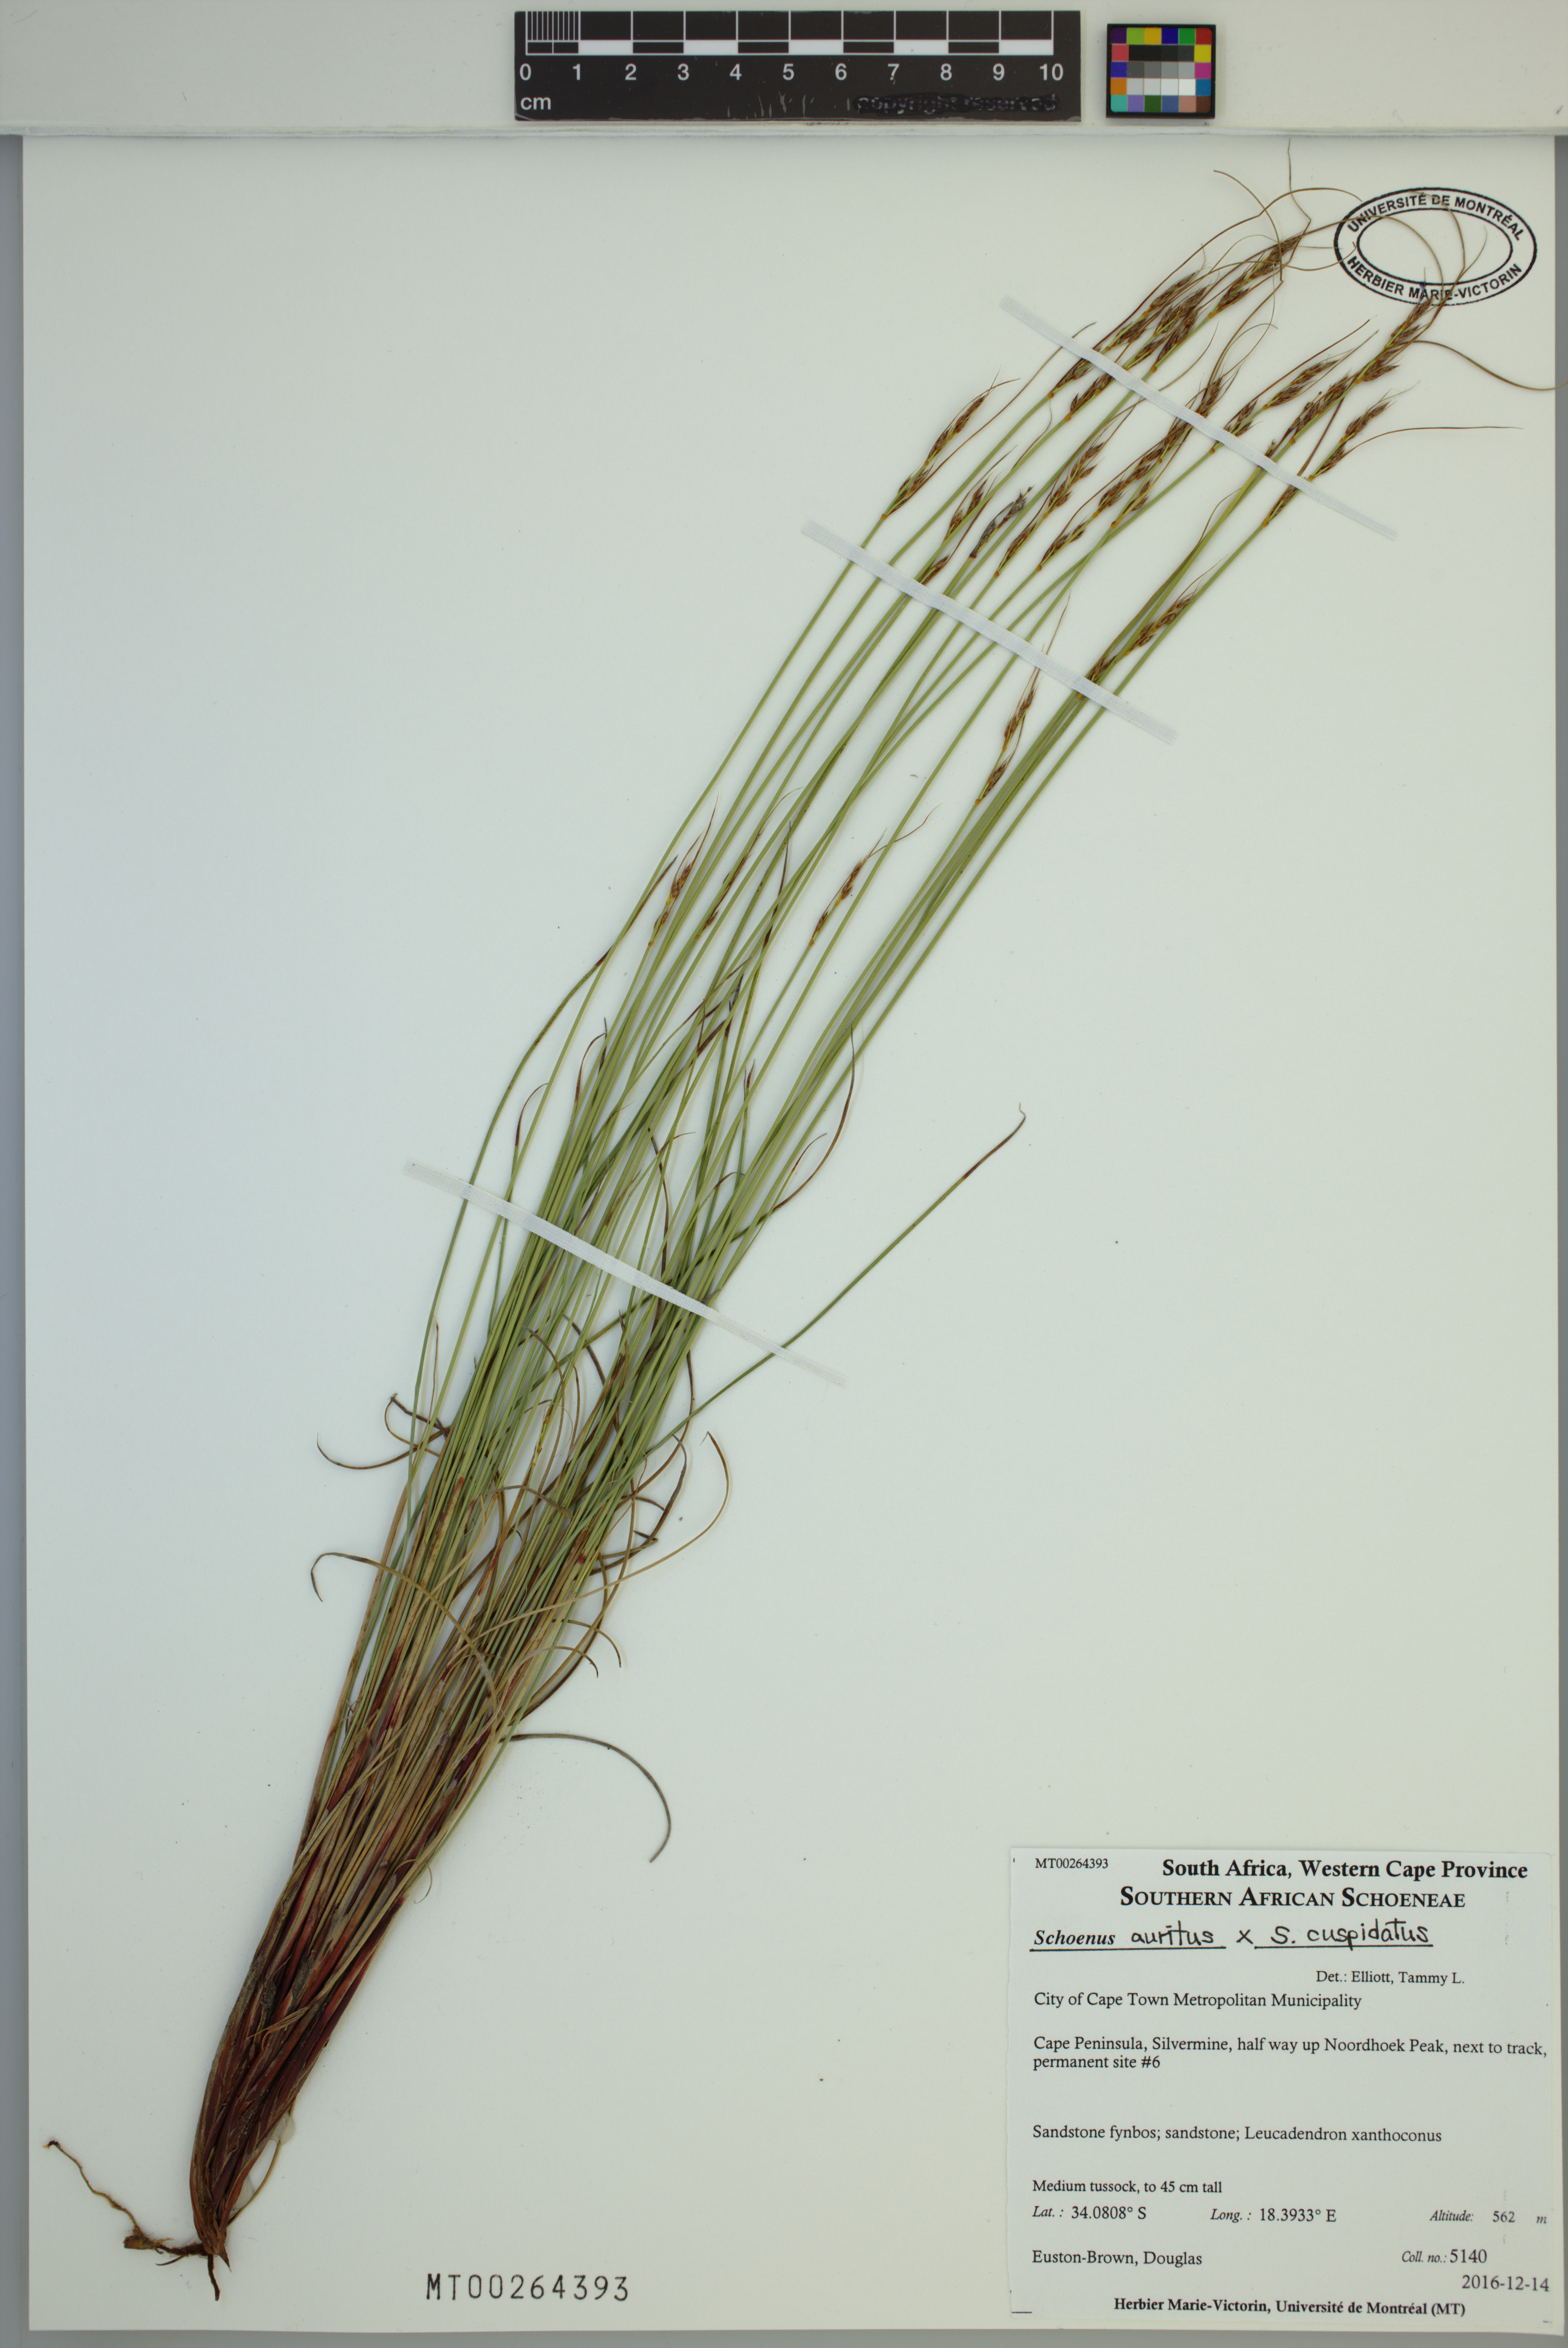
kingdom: Plantae
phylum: Tracheophyta
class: Liliopsida
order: Poales
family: Cyperaceae
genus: Schoenus
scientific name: Schoenus auritus
